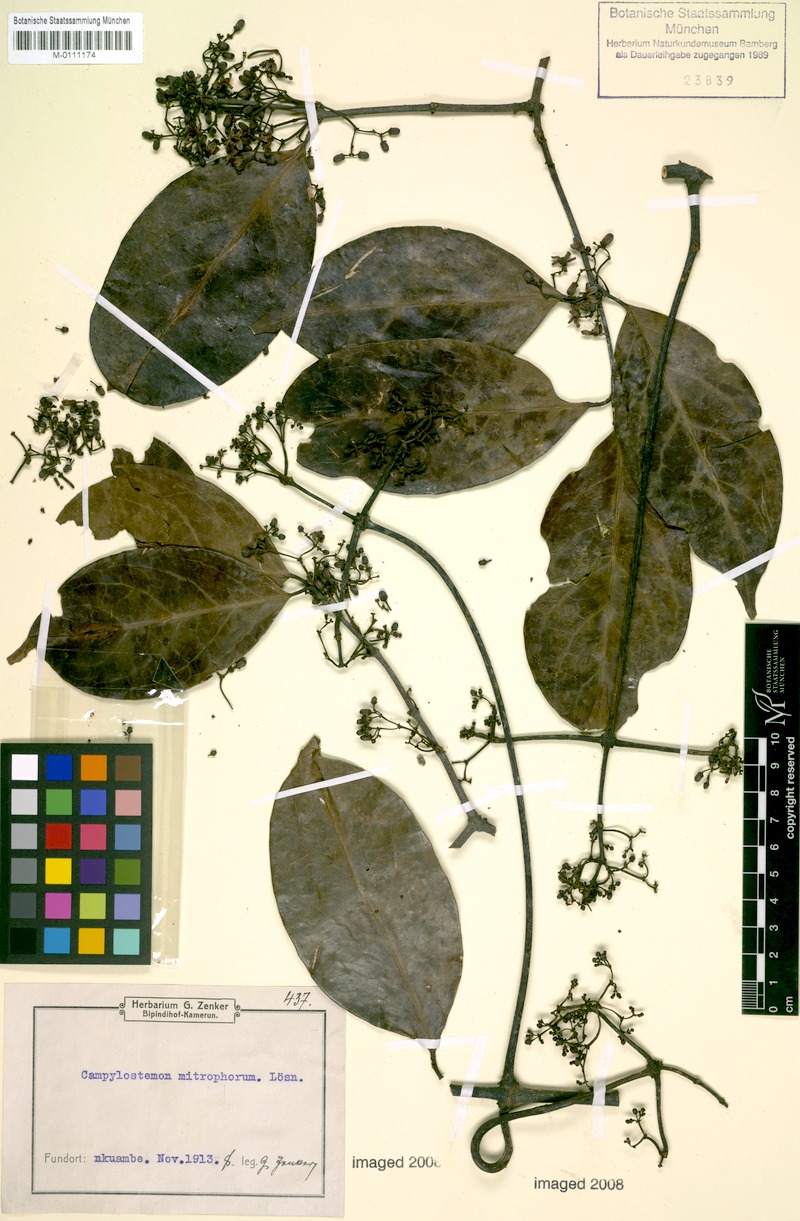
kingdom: Plantae
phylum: Tracheophyta
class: Magnoliopsida
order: Celastrales
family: Celastraceae
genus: Campylostemon
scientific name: Campylostemon mitophorum
